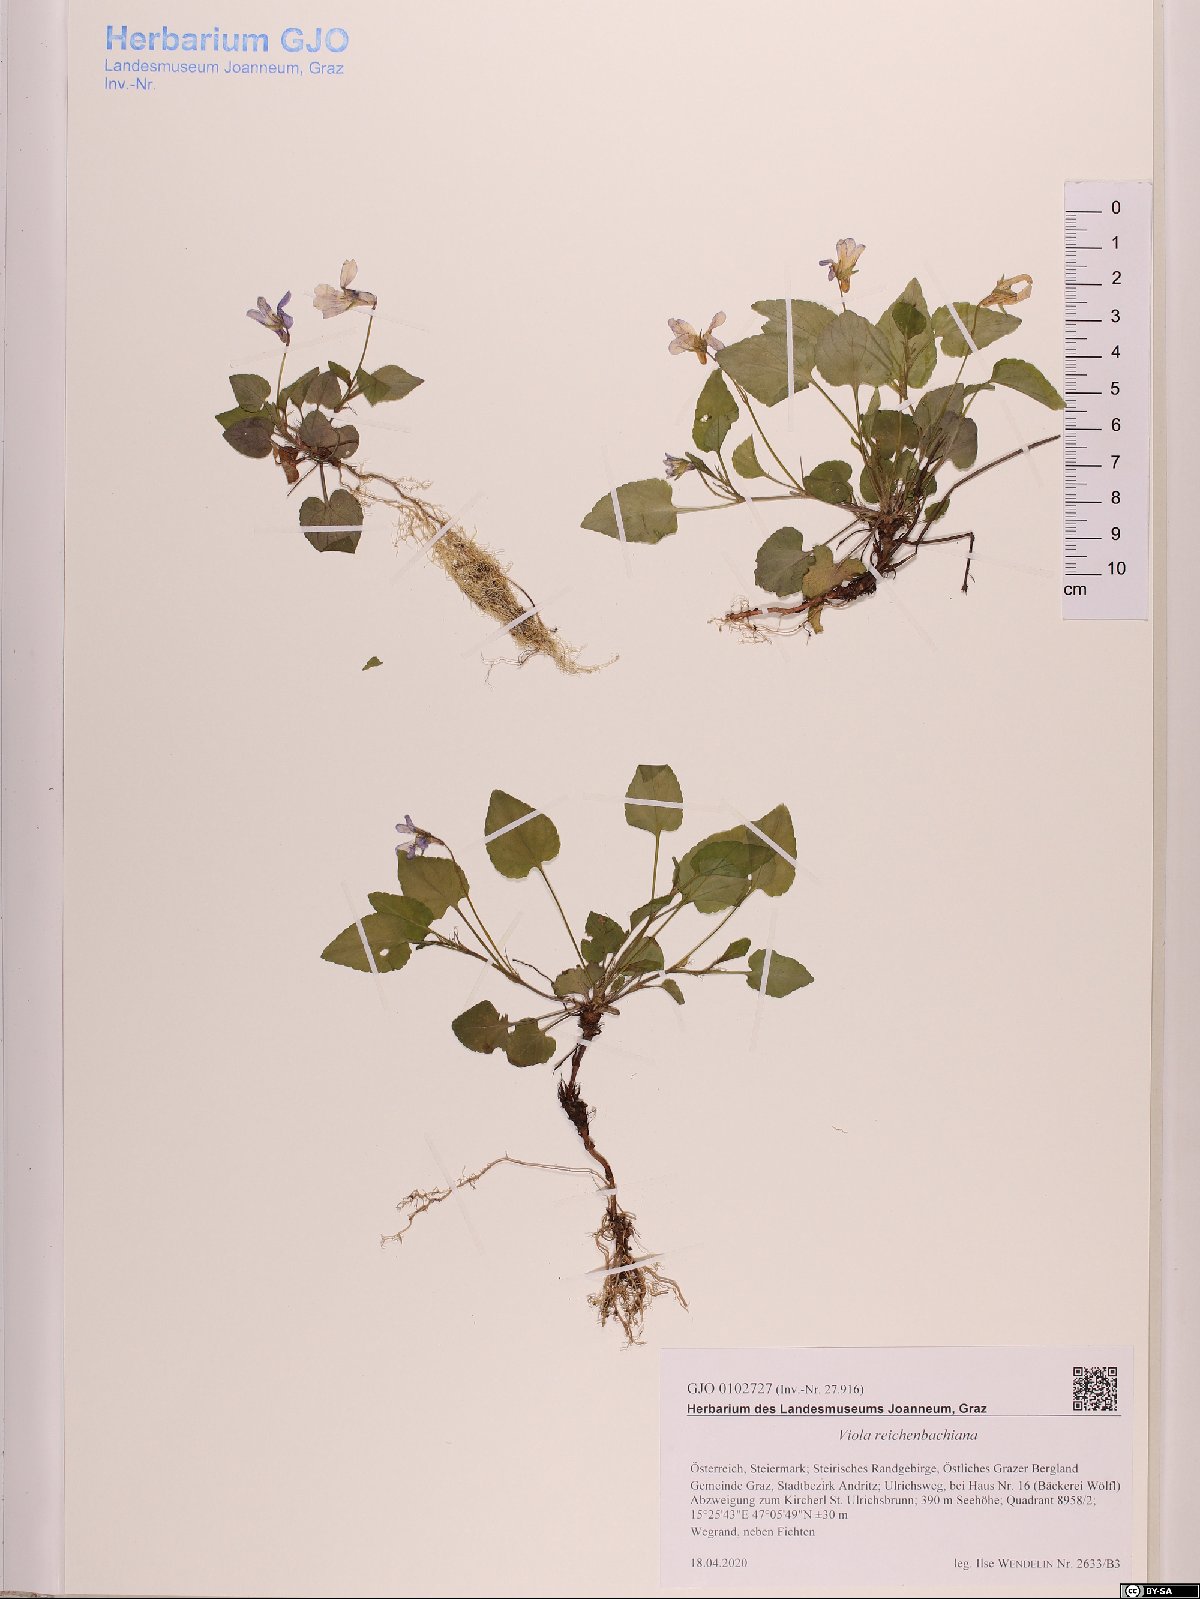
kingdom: Plantae
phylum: Tracheophyta
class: Magnoliopsida
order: Malpighiales
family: Violaceae
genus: Viola
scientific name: Viola reichenbachiana
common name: Early dog-violet
